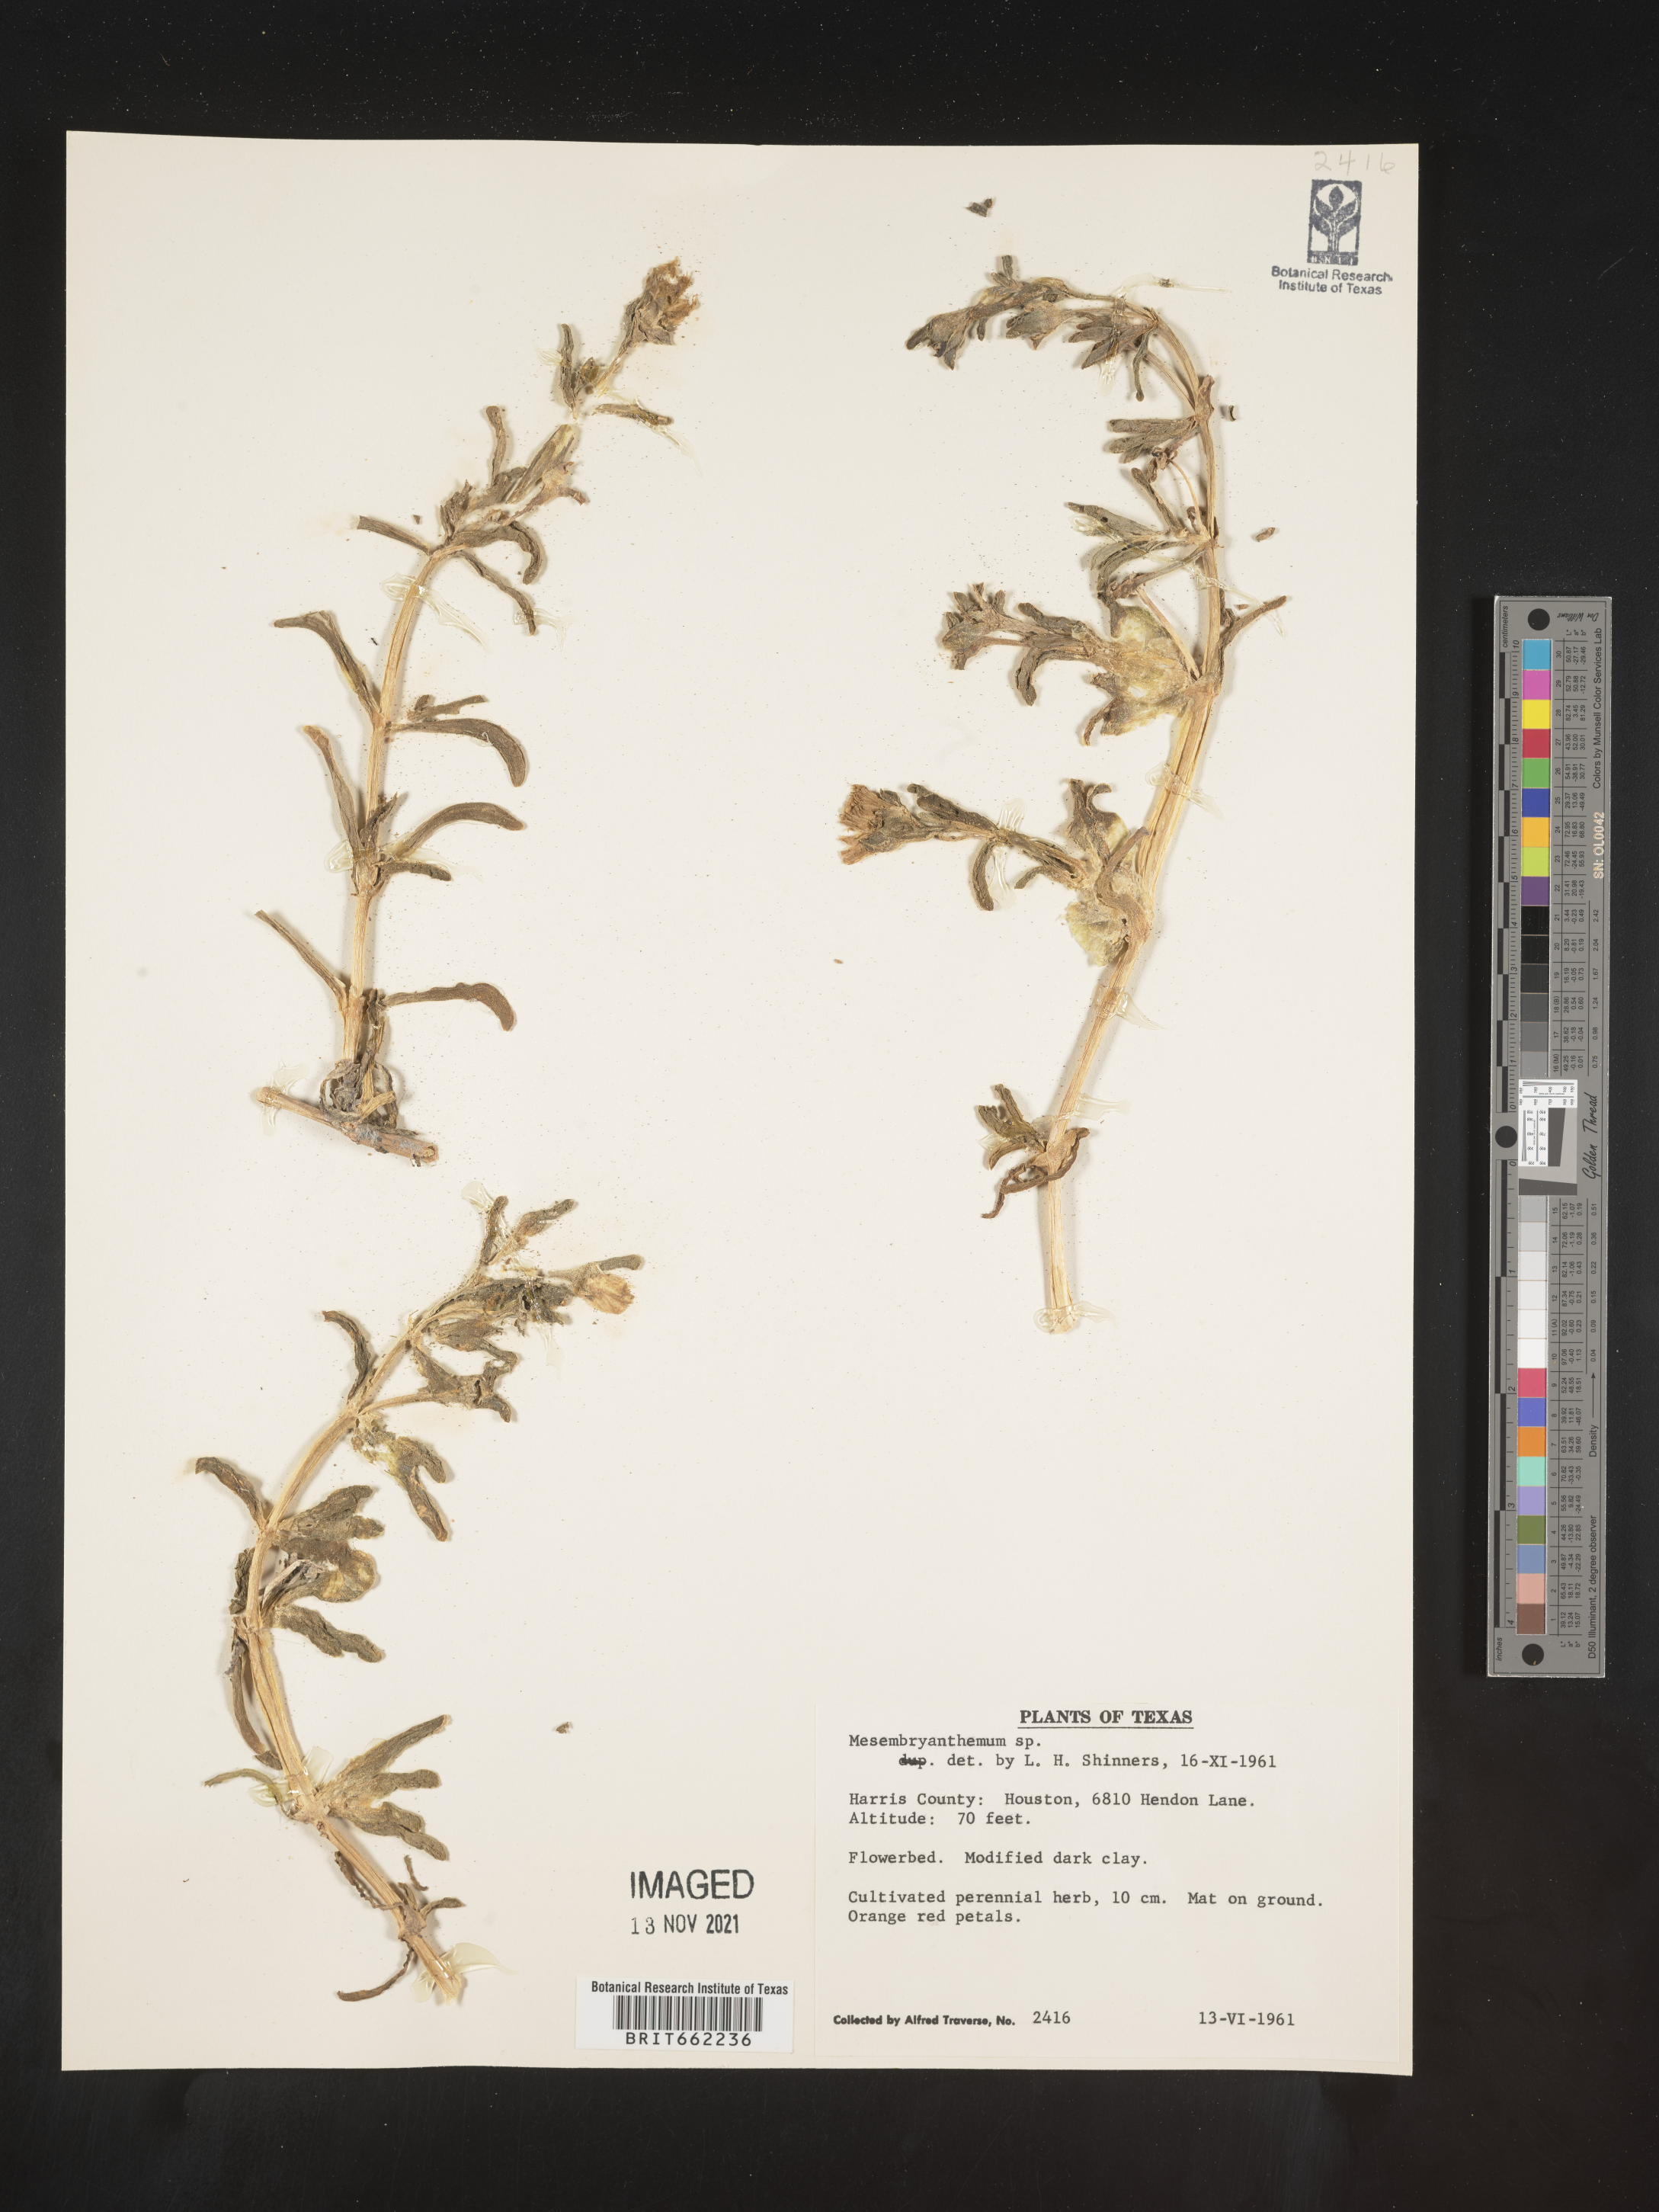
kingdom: Plantae
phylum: Tracheophyta
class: Magnoliopsida
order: Caryophyllales
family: Aizoaceae
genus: Mesembryanthemum
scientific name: Mesembryanthemum
